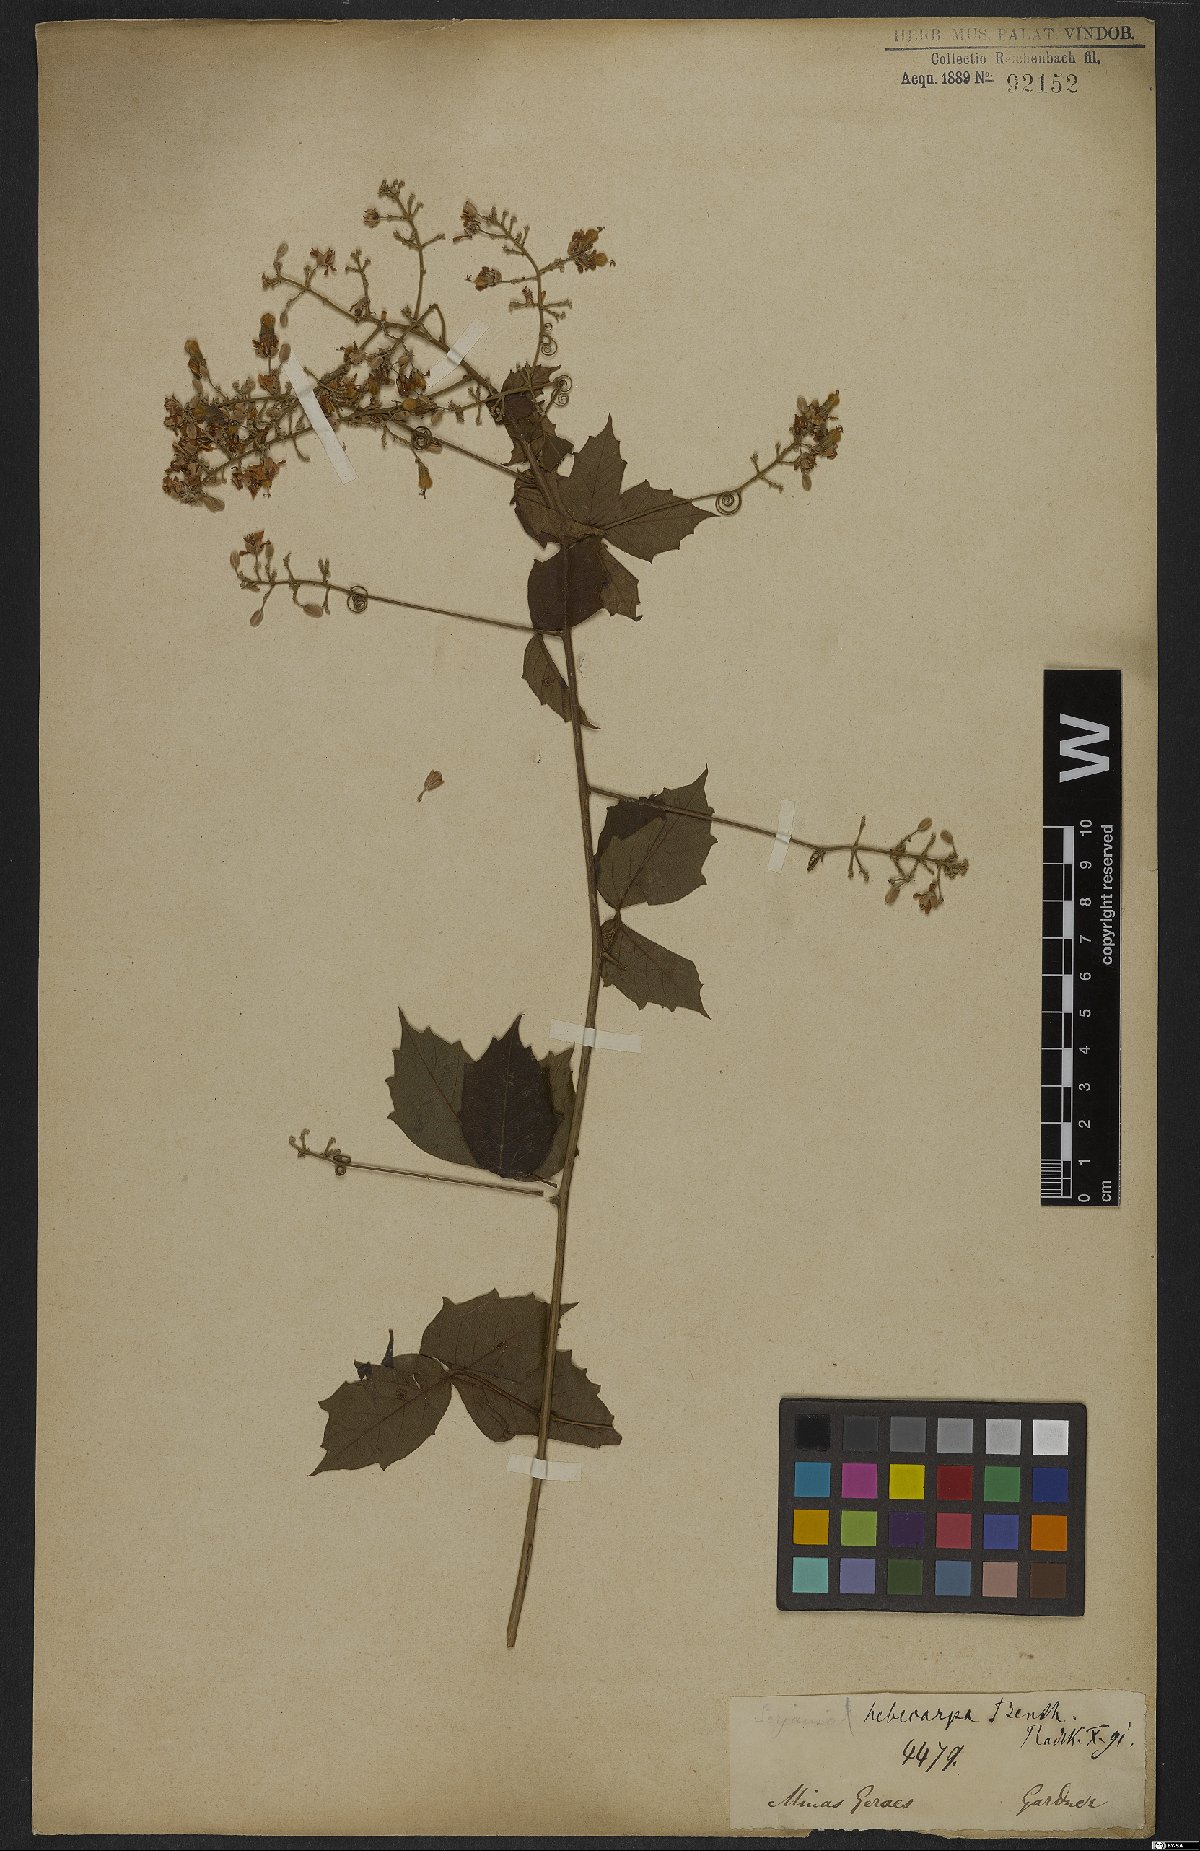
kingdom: Plantae
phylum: Tracheophyta
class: Magnoliopsida
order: Sapindales
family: Sapindaceae
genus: Serjania
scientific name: Serjania hebecarpa
